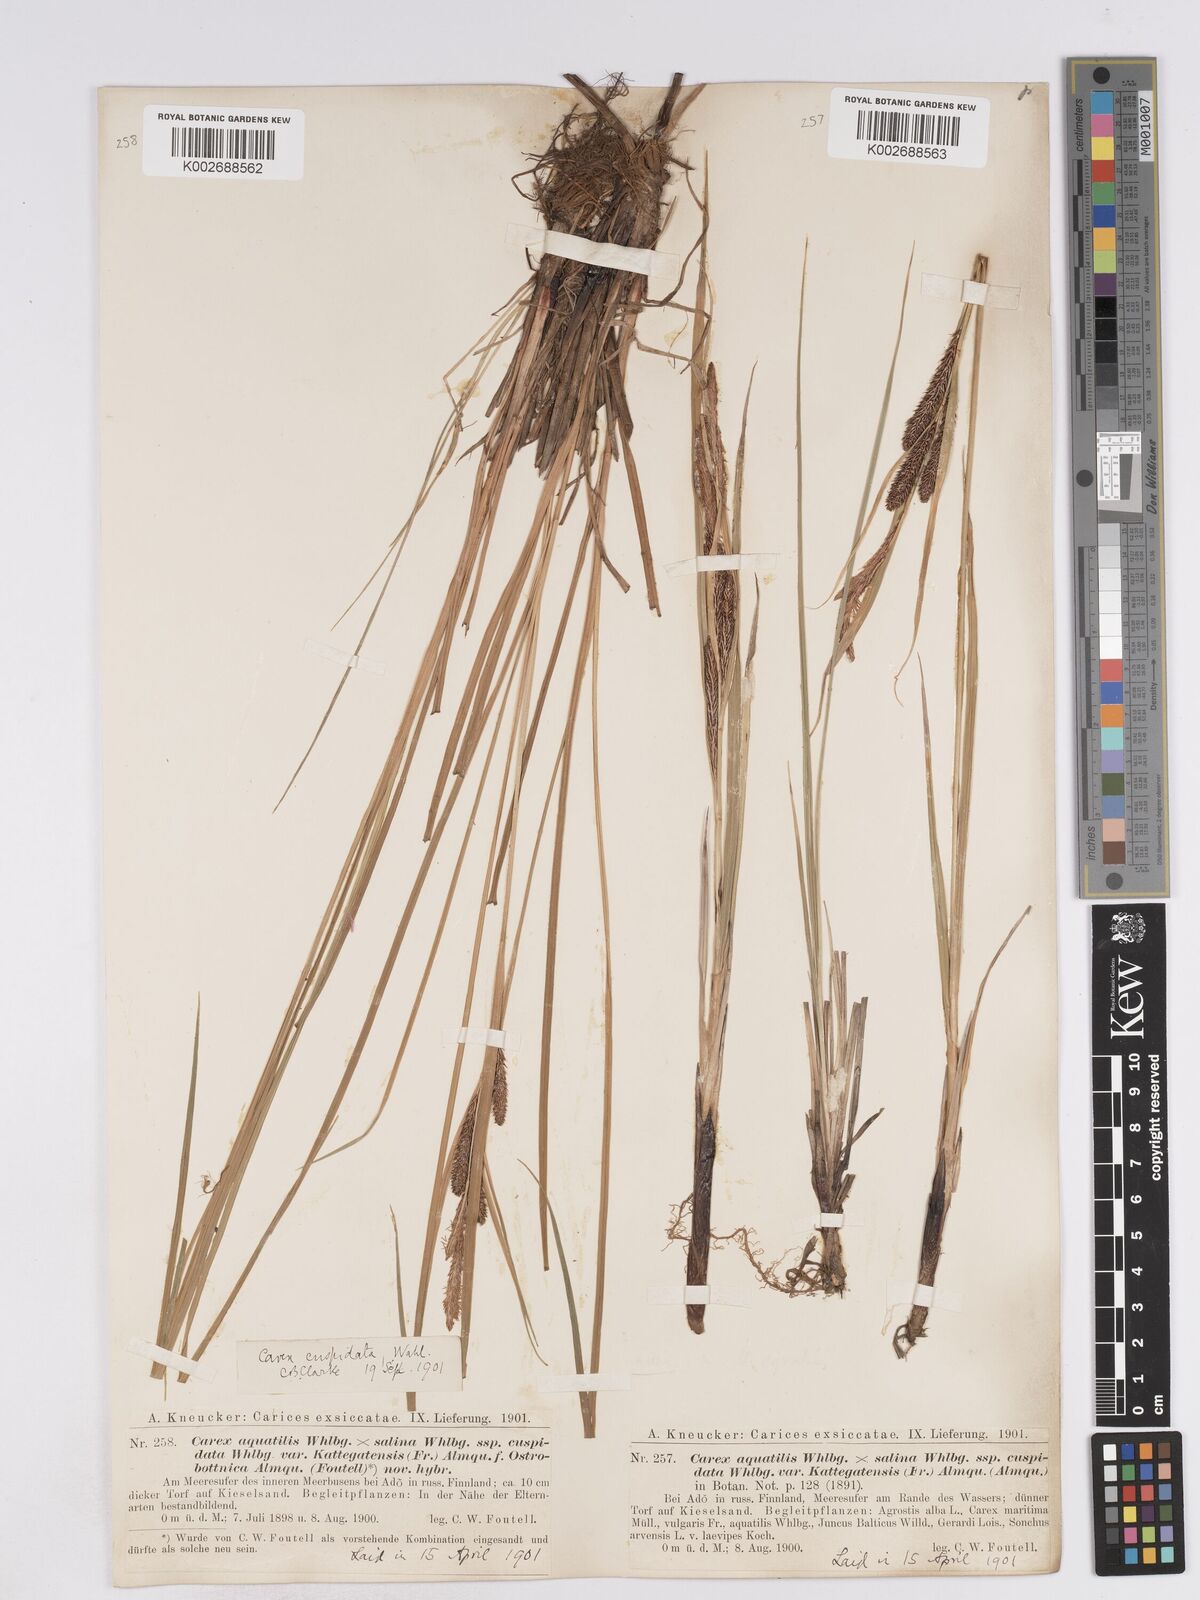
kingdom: Plantae
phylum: Tracheophyta
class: Liliopsida
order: Poales
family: Cyperaceae
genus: Carex
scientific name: Carex recta
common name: Estuarine sedge
